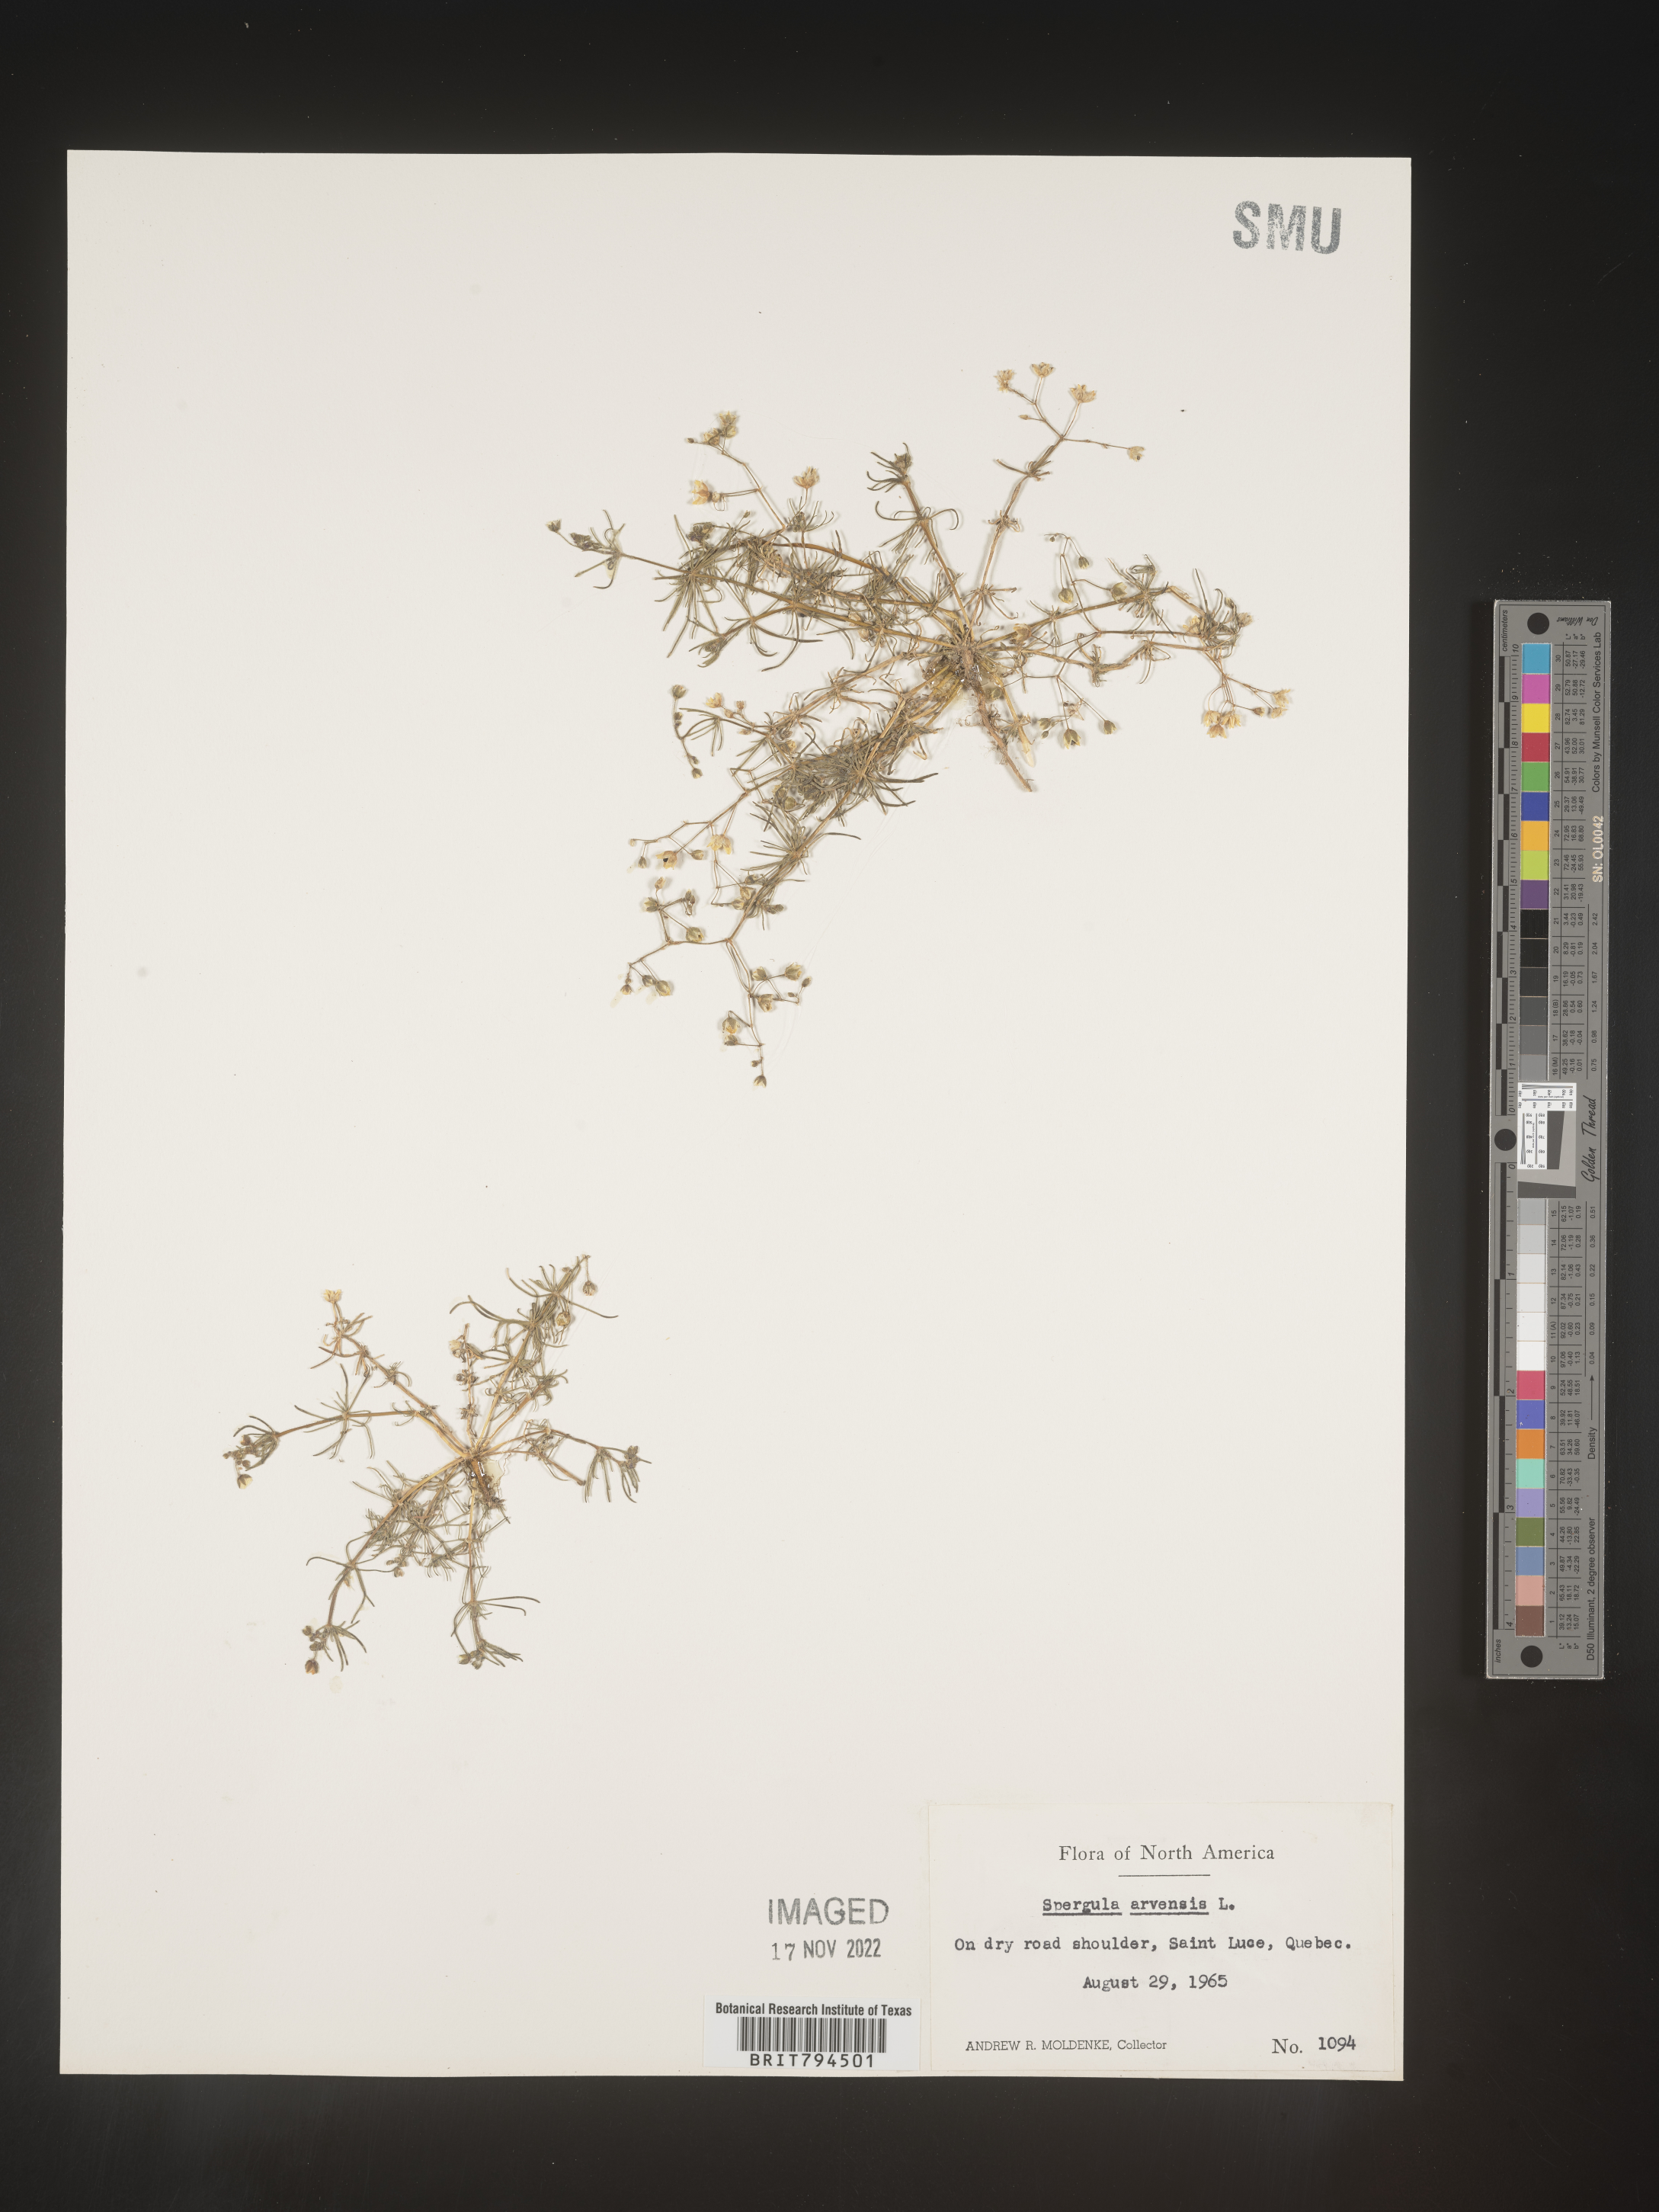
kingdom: Plantae
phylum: Tracheophyta
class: Magnoliopsida
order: Caryophyllales
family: Caryophyllaceae
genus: Spergula
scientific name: Spergula arvensis
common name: Corn spurrey
